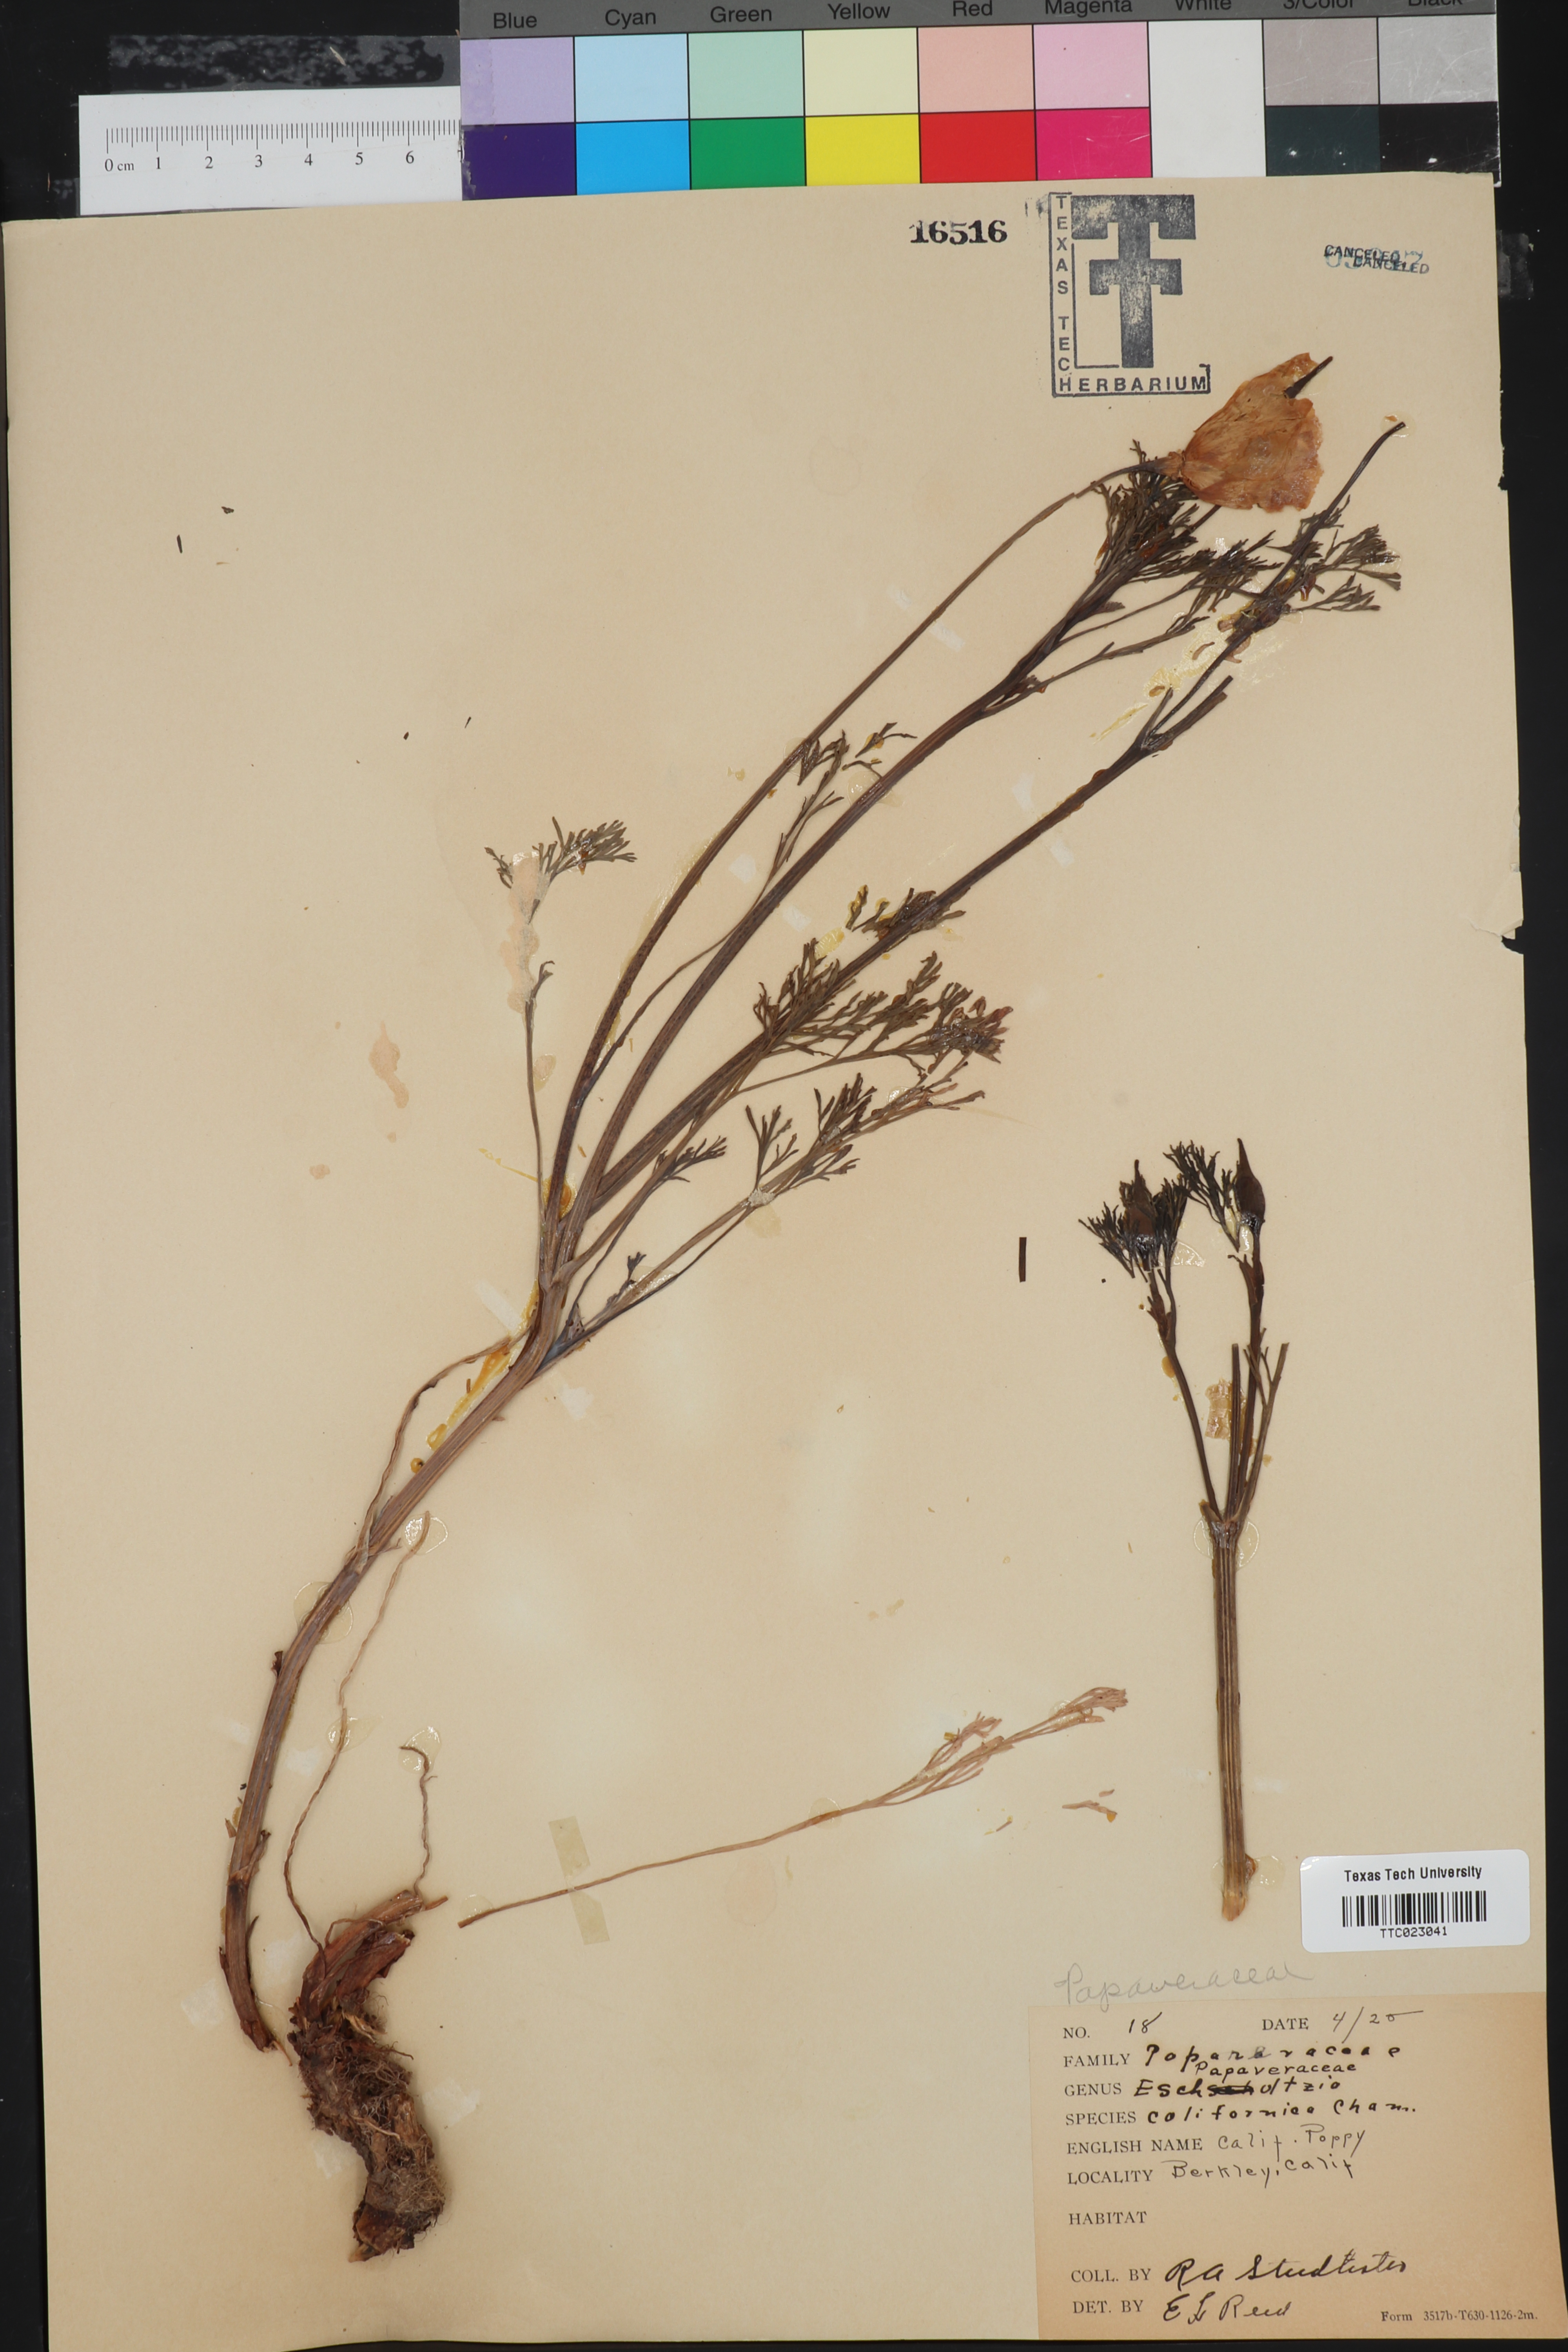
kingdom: Plantae
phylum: Tracheophyta
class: Magnoliopsida
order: Ranunculales
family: Papaveraceae
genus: Eschscholzia
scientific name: Eschscholzia californica
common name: California poppy
